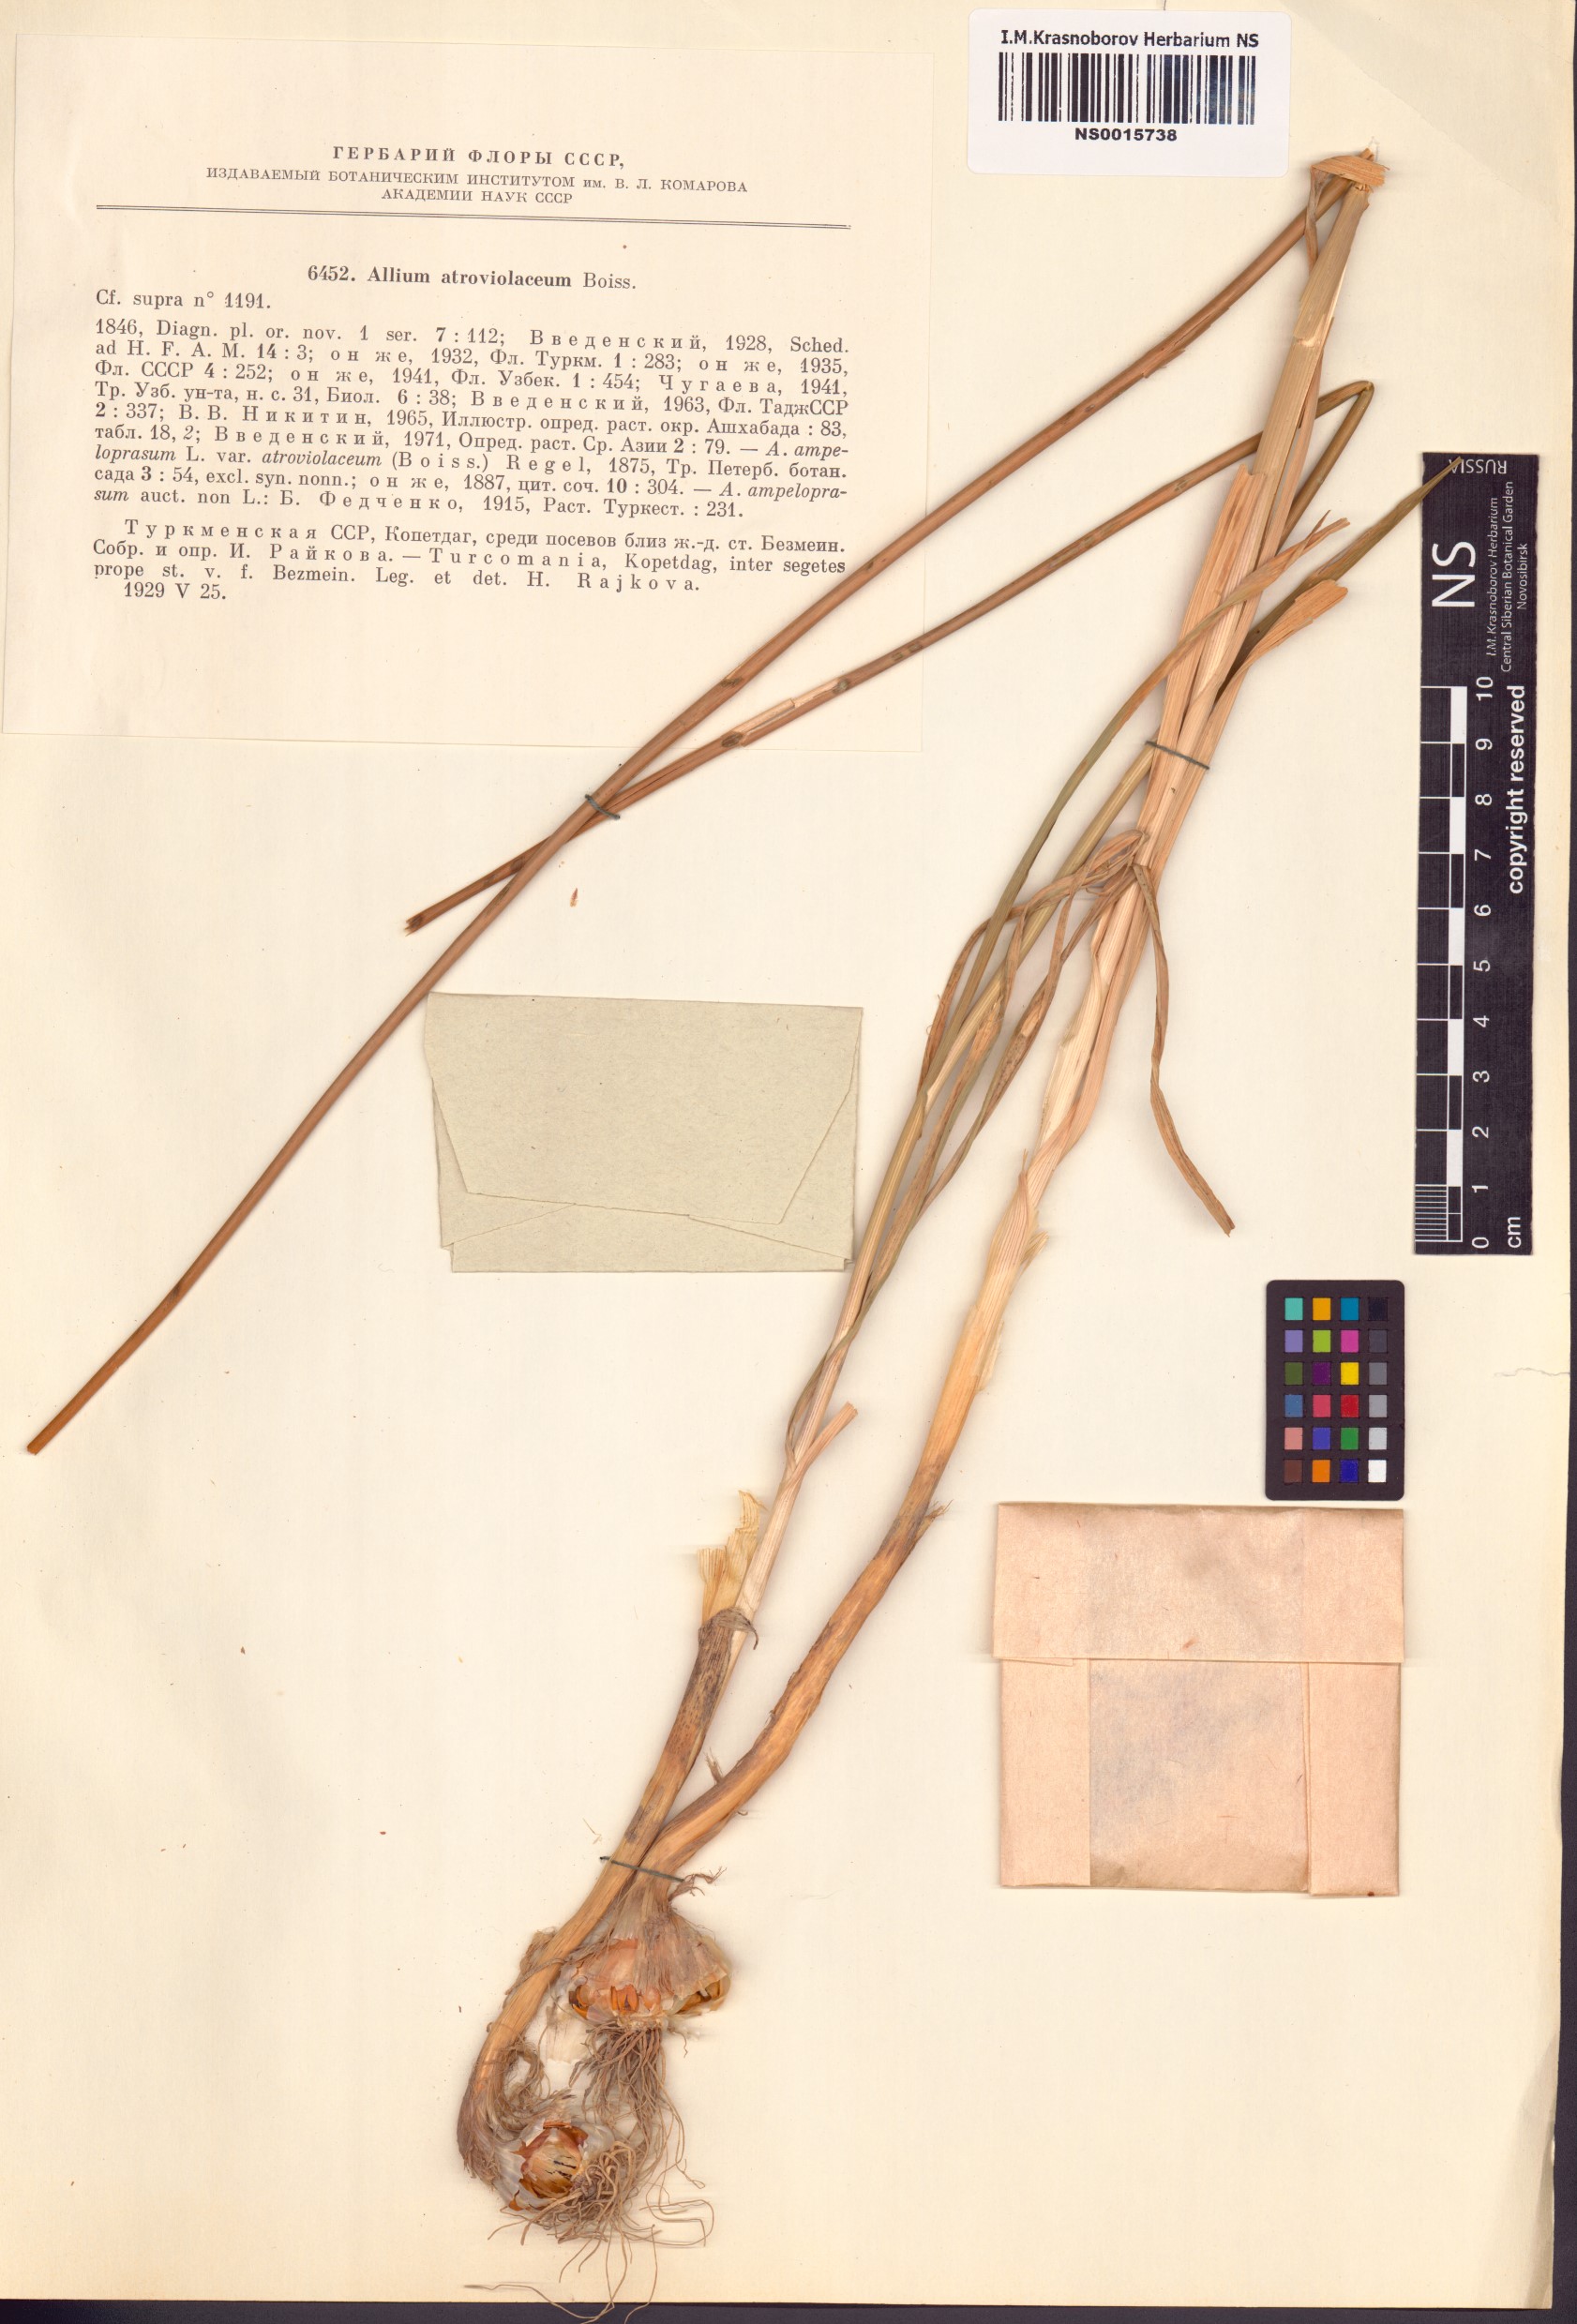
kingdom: Plantae
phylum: Tracheophyta
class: Liliopsida
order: Asparagales
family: Amaryllidaceae
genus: Allium
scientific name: Allium atroviolaceum
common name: Broadleaf wild leek
